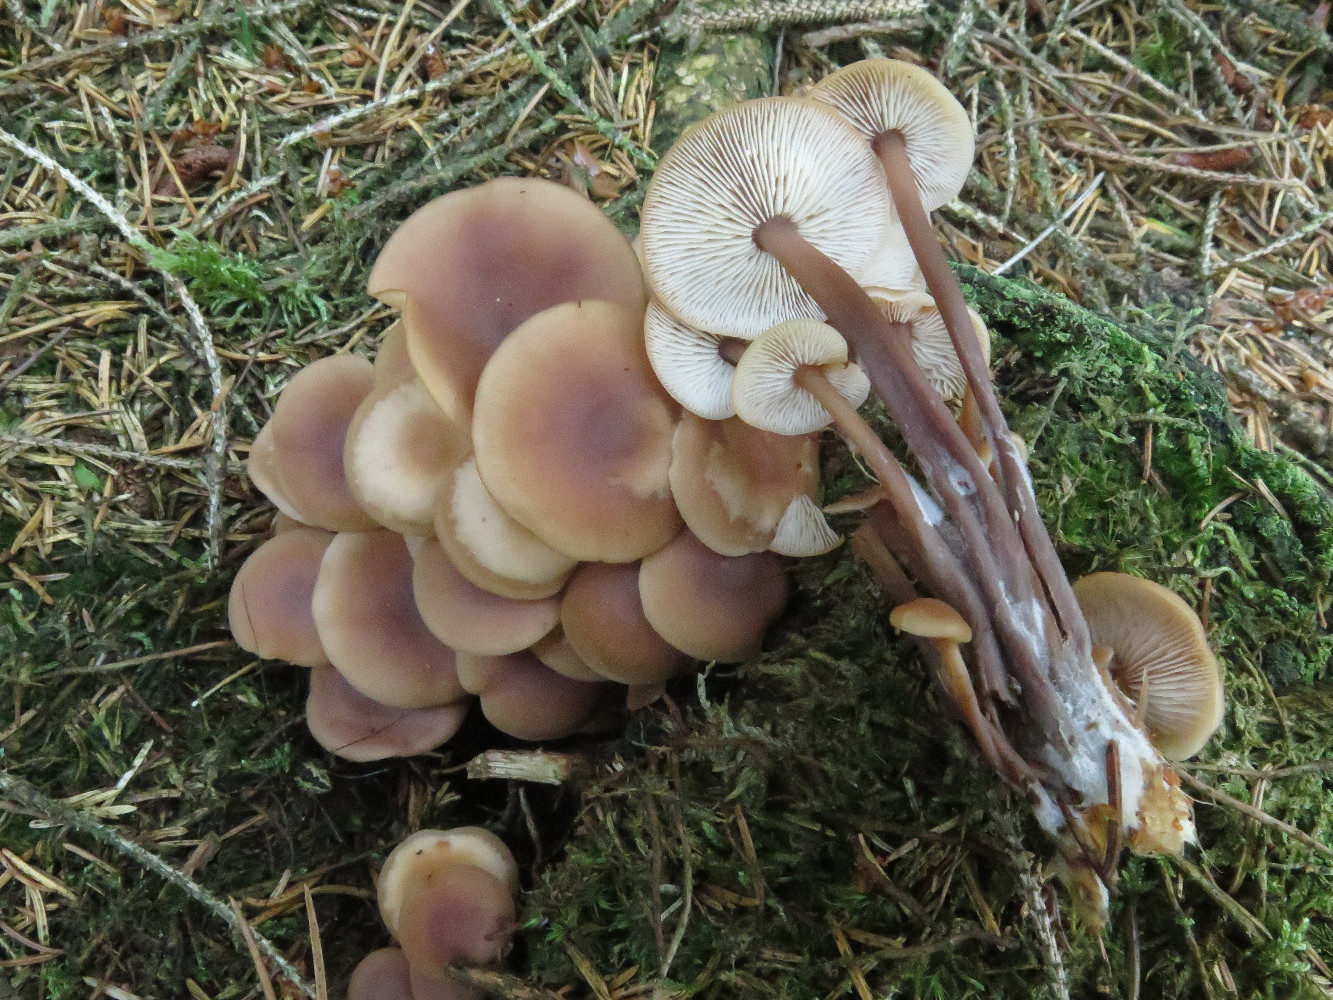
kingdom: Fungi
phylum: Basidiomycota
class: Agaricomycetes
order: Agaricales
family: Omphalotaceae
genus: Connopus
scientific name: Connopus acervatus
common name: tue-fladhat
